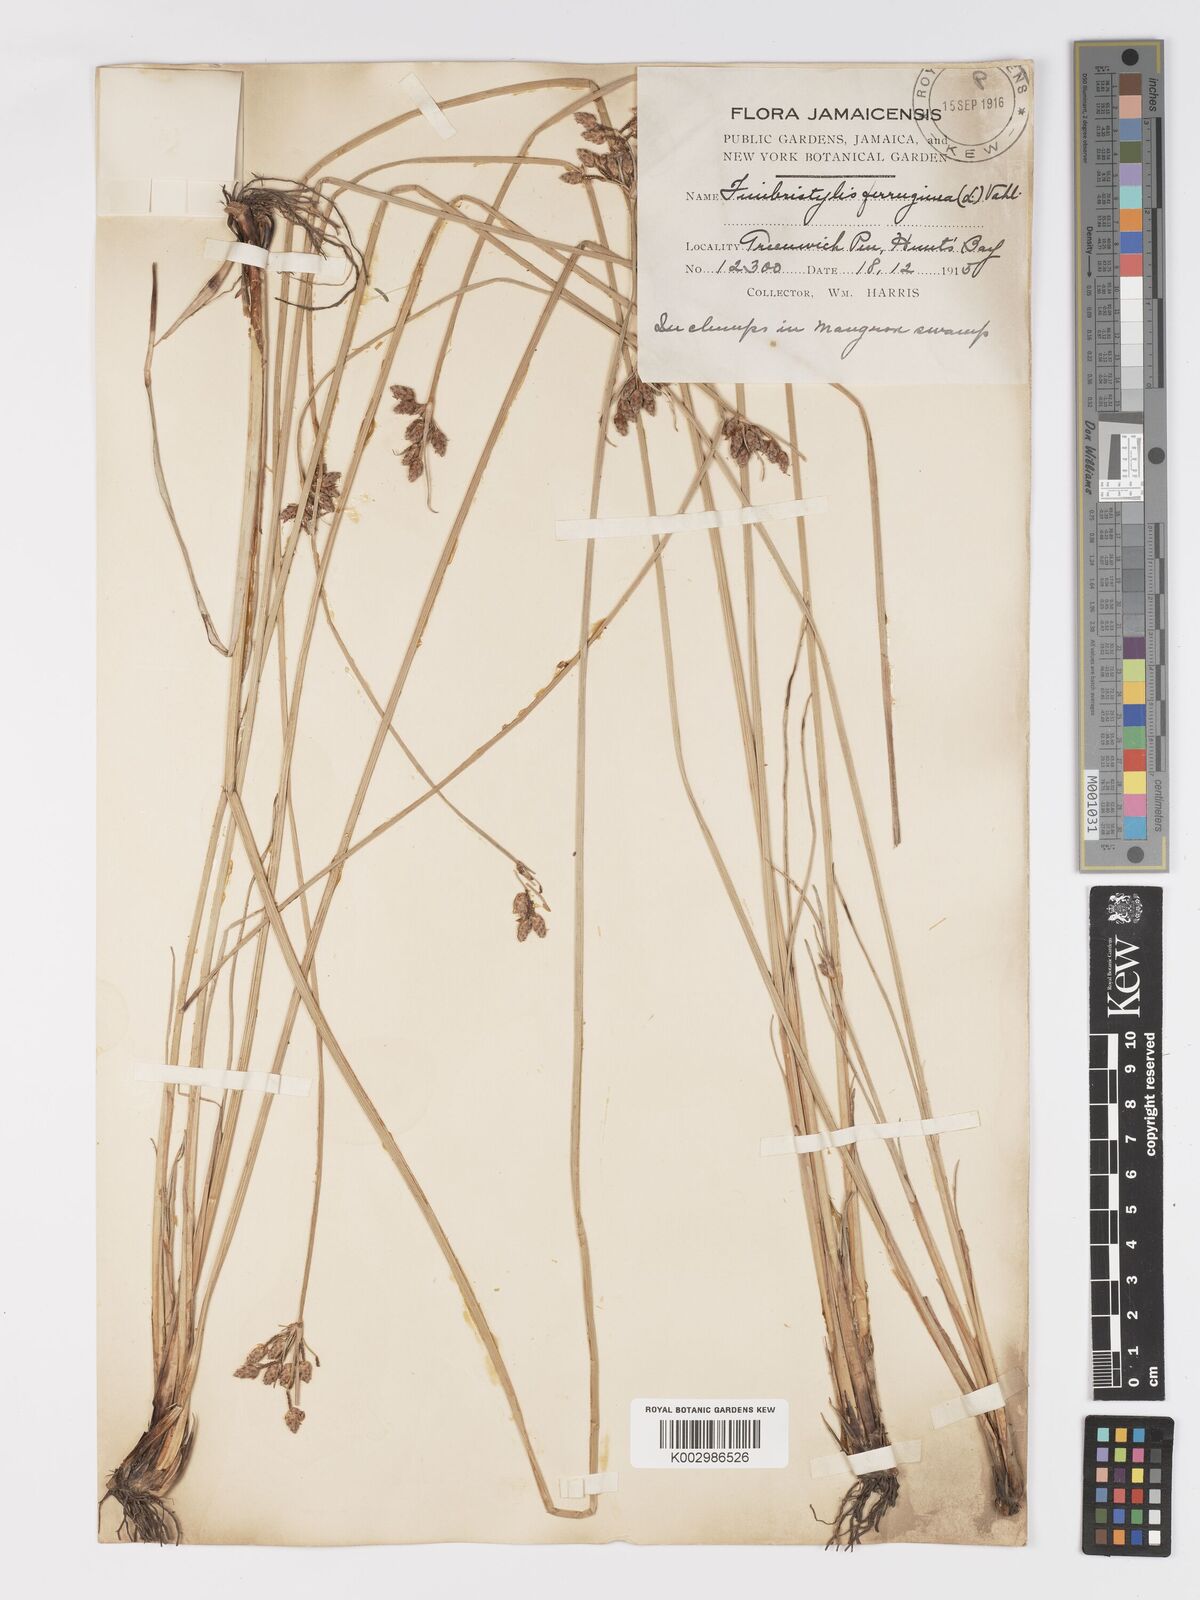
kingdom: Plantae
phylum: Tracheophyta
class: Liliopsida
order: Poales
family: Cyperaceae
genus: Fimbristylis
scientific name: Fimbristylis ferruginea
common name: West indian fimbry
